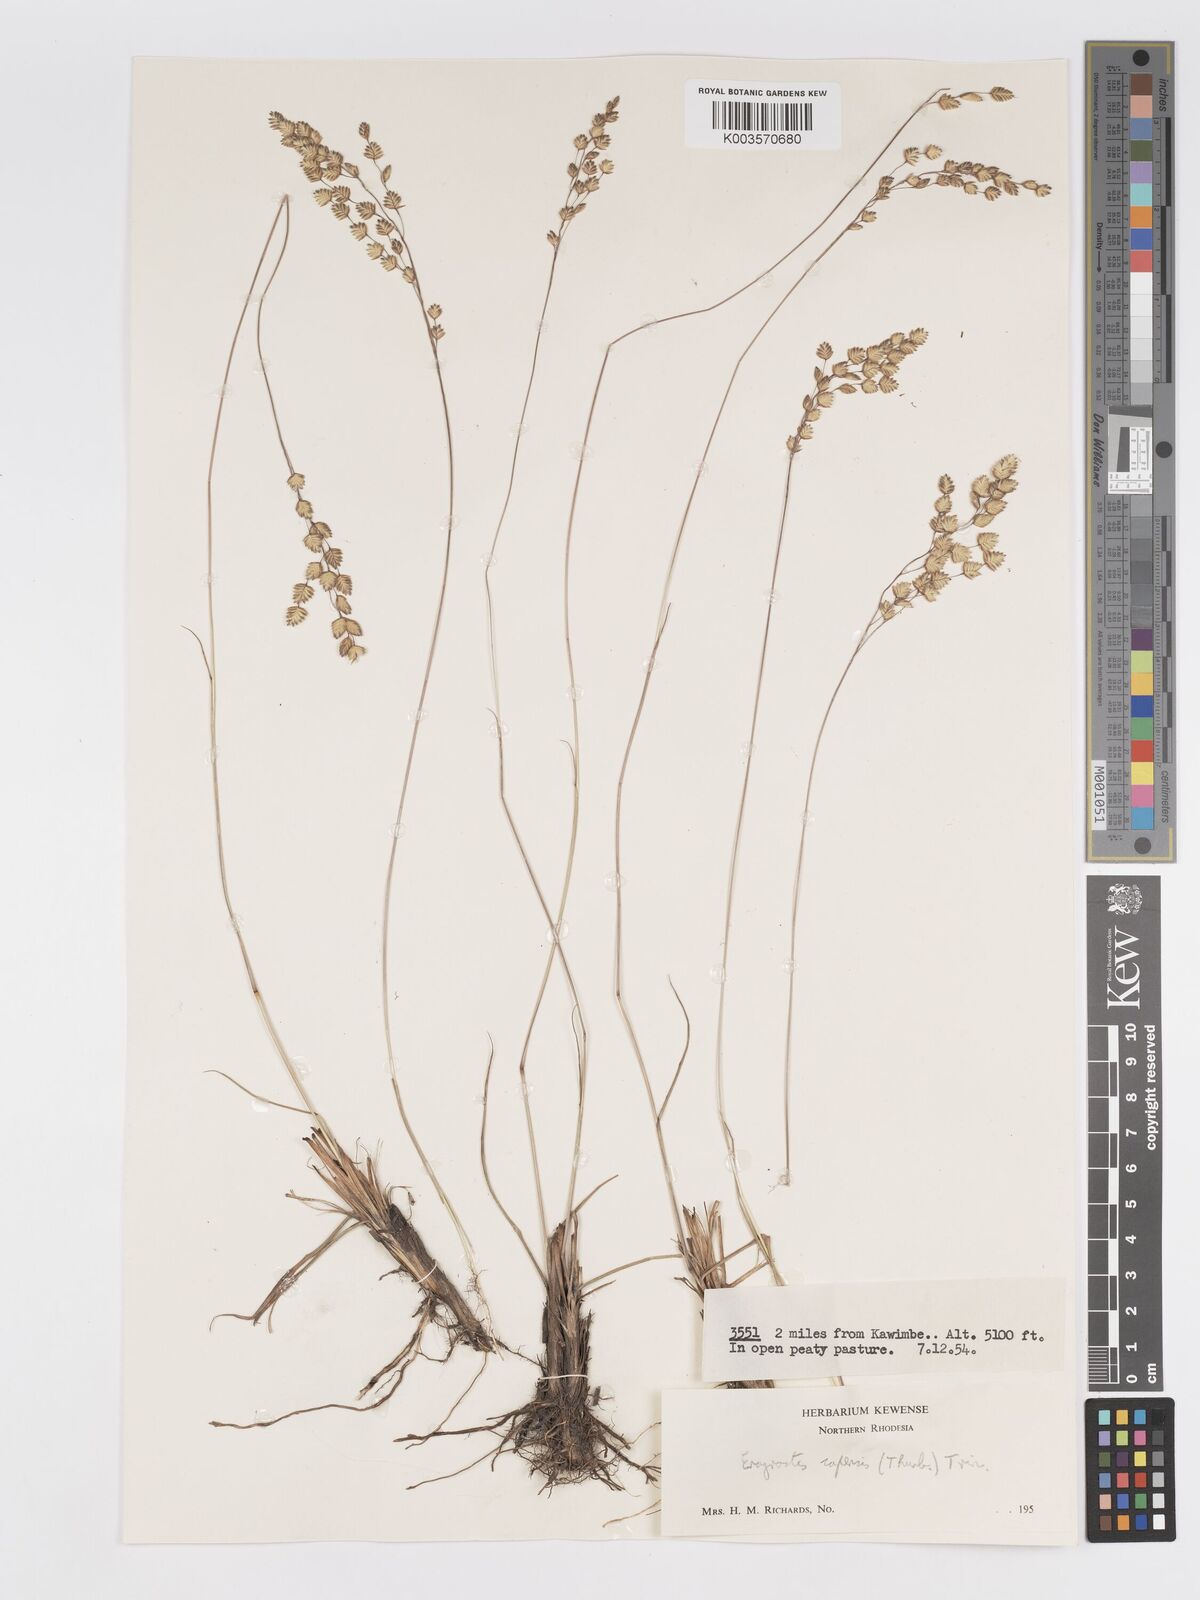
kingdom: Plantae
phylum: Tracheophyta
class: Liliopsida
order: Poales
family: Poaceae
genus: Eragrostis
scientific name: Eragrostis capensis
